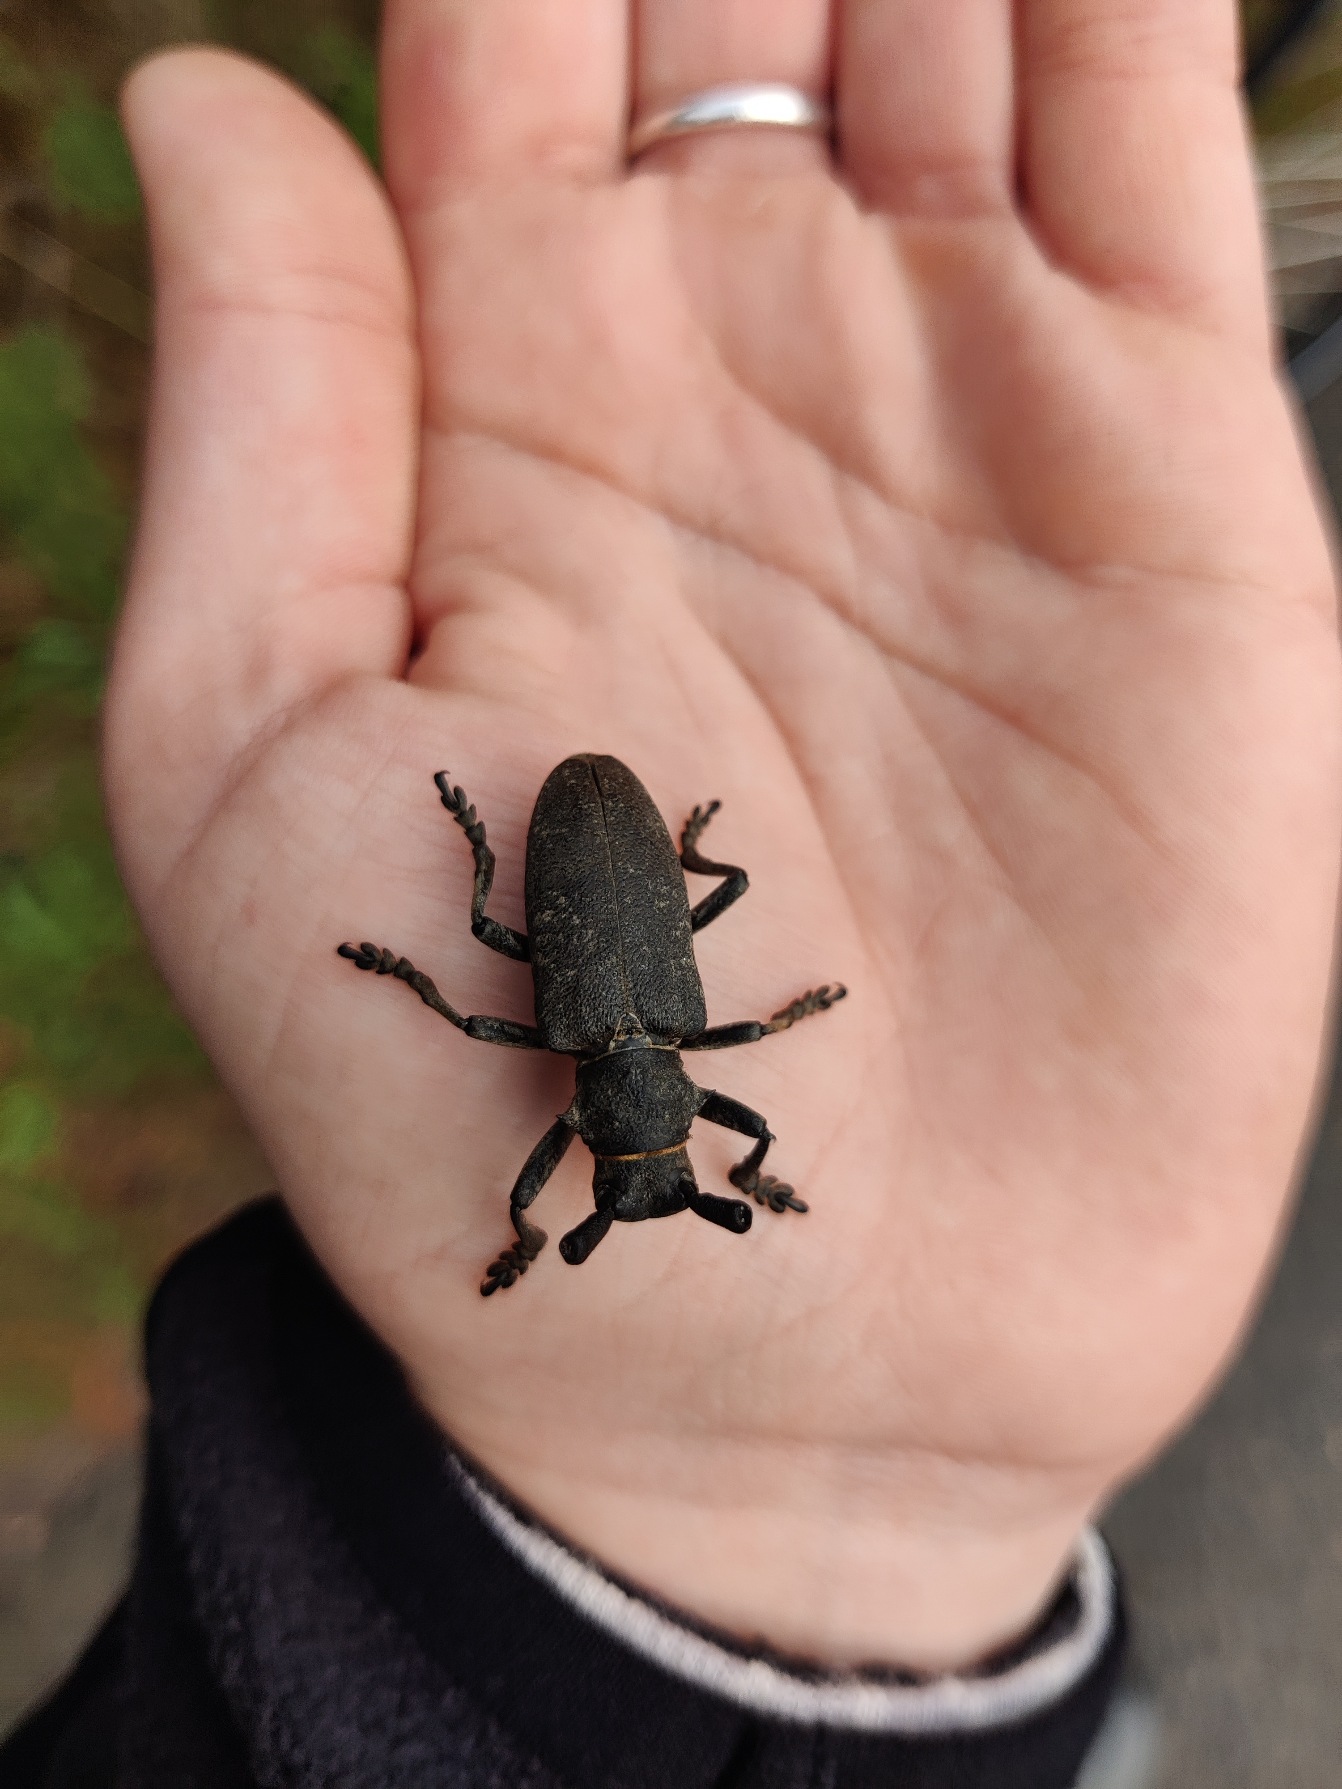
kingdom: Animalia
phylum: Arthropoda
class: Insecta
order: Coleoptera
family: Cerambycidae
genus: Lamia
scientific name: Lamia textor
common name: Væver
